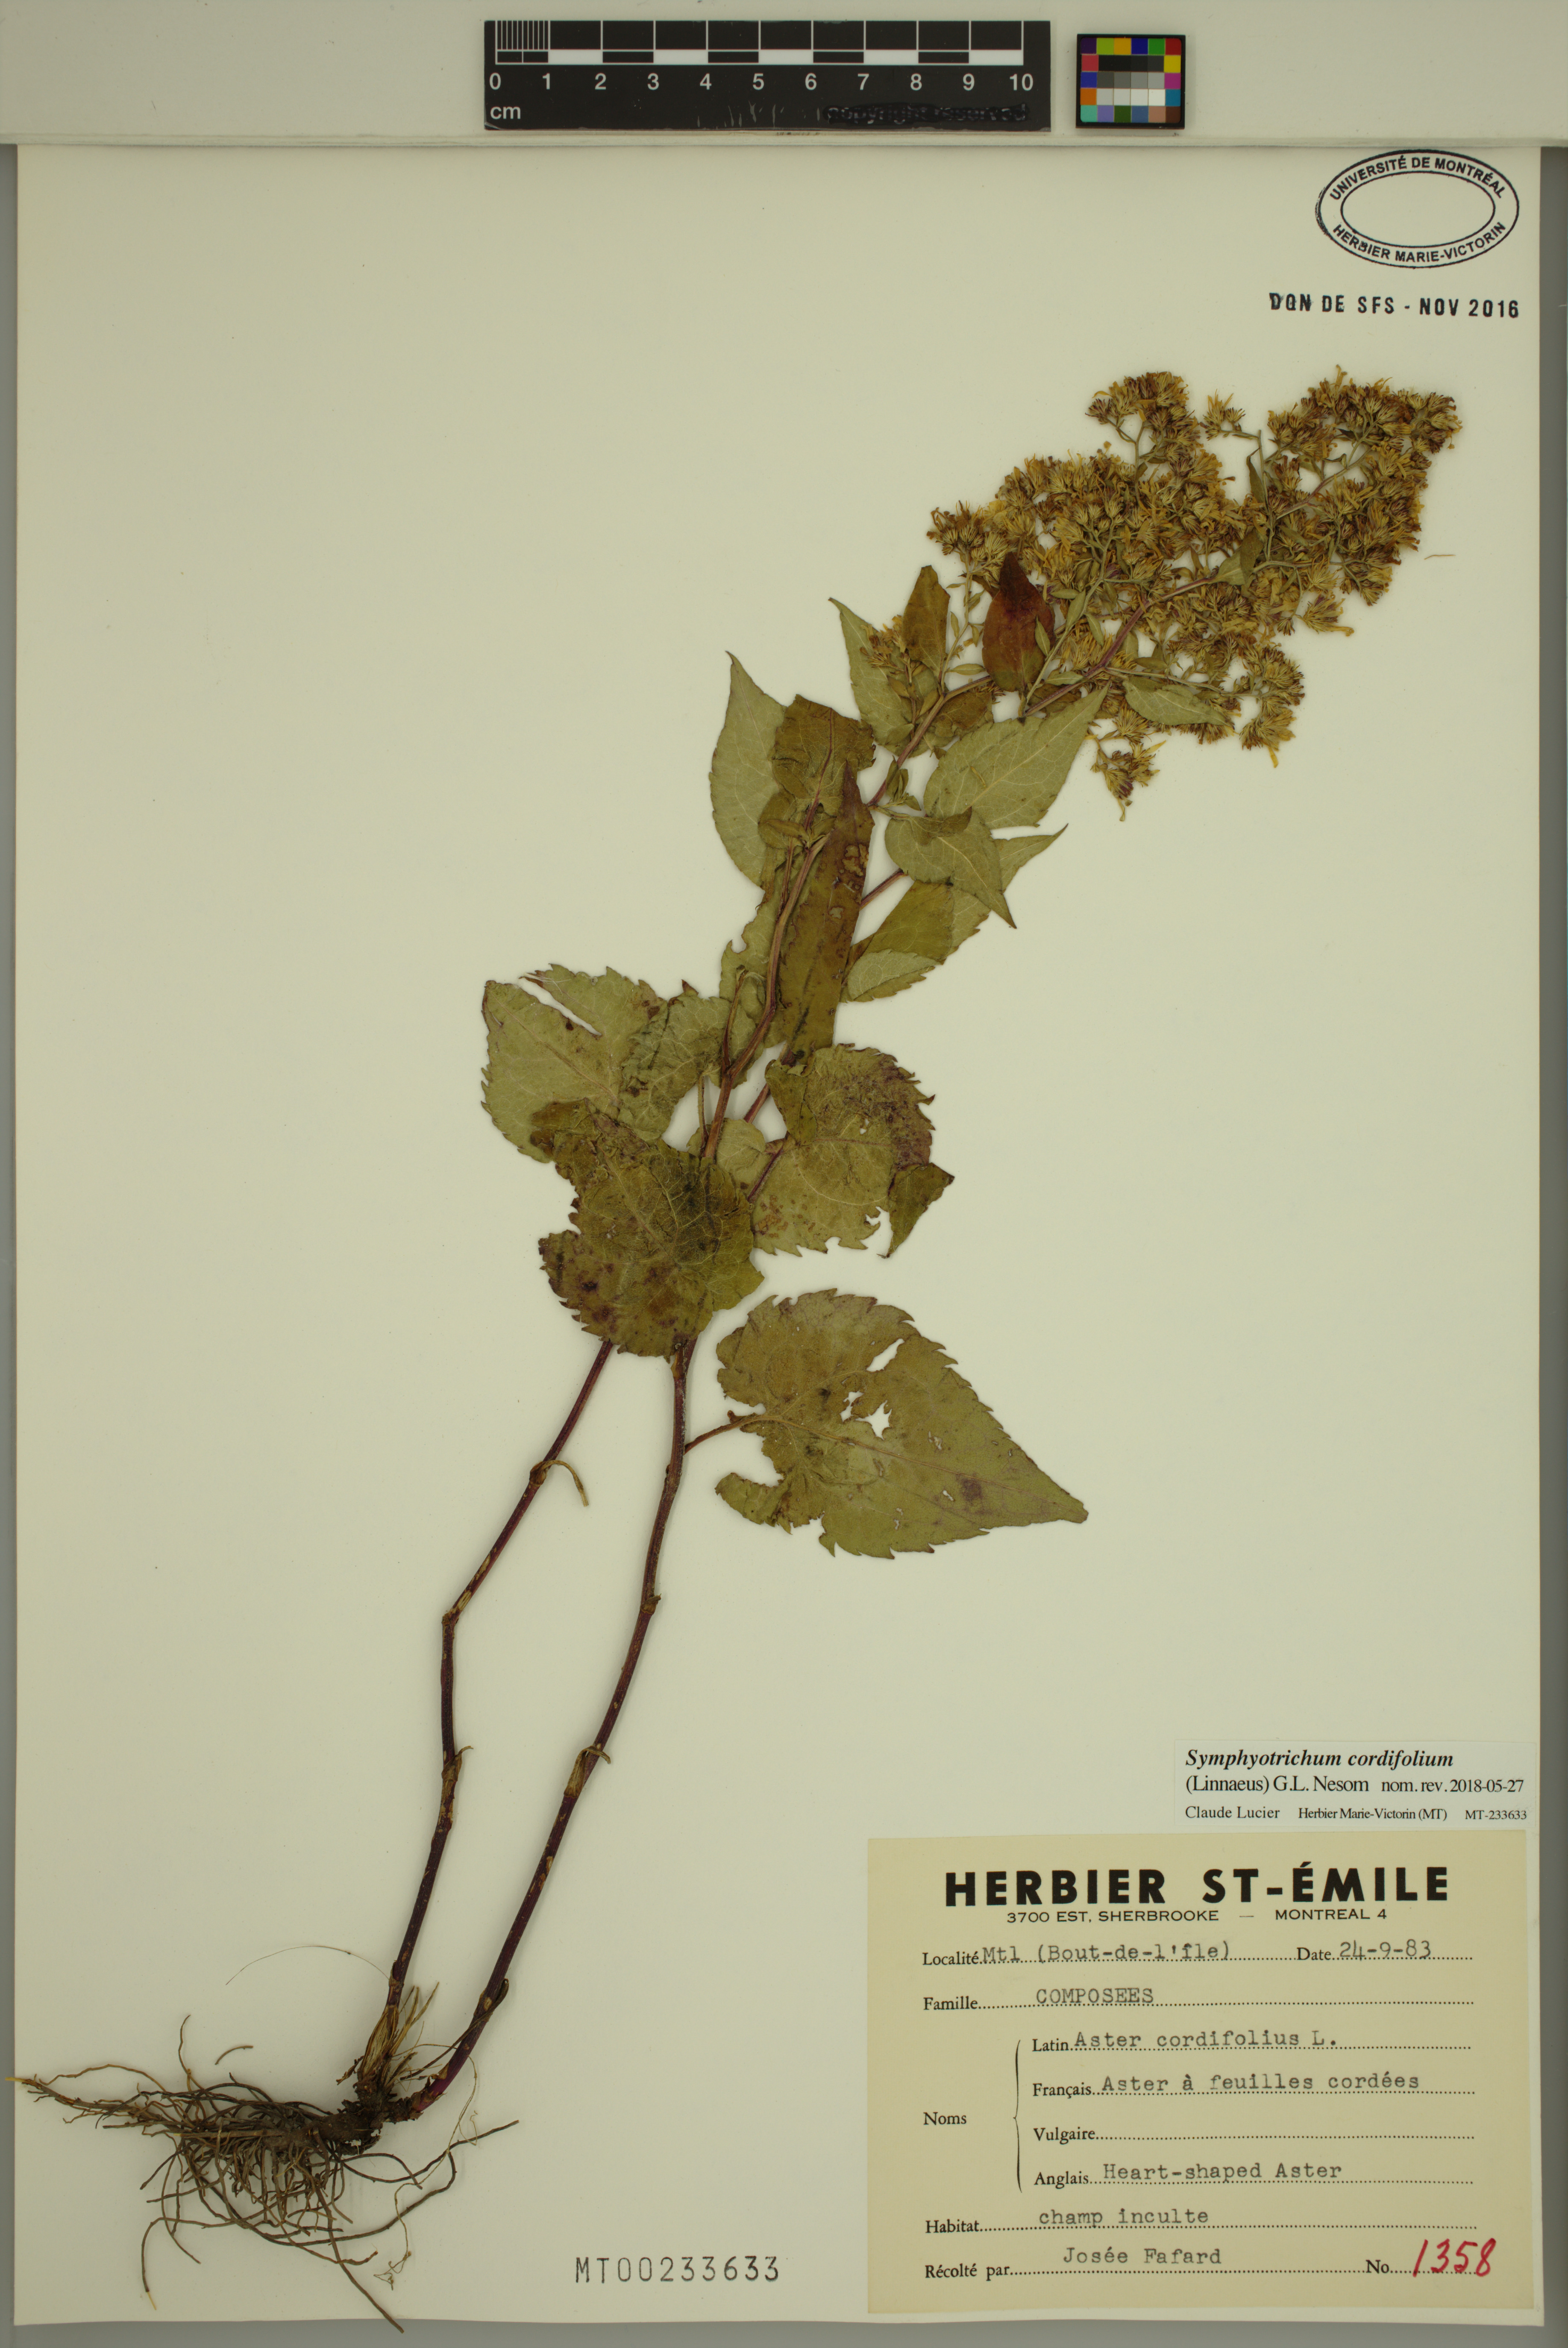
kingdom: Plantae
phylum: Tracheophyta
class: Magnoliopsida
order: Asterales
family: Asteraceae
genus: Symphyotrichum
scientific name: Symphyotrichum cordifolium
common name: Beeweed
